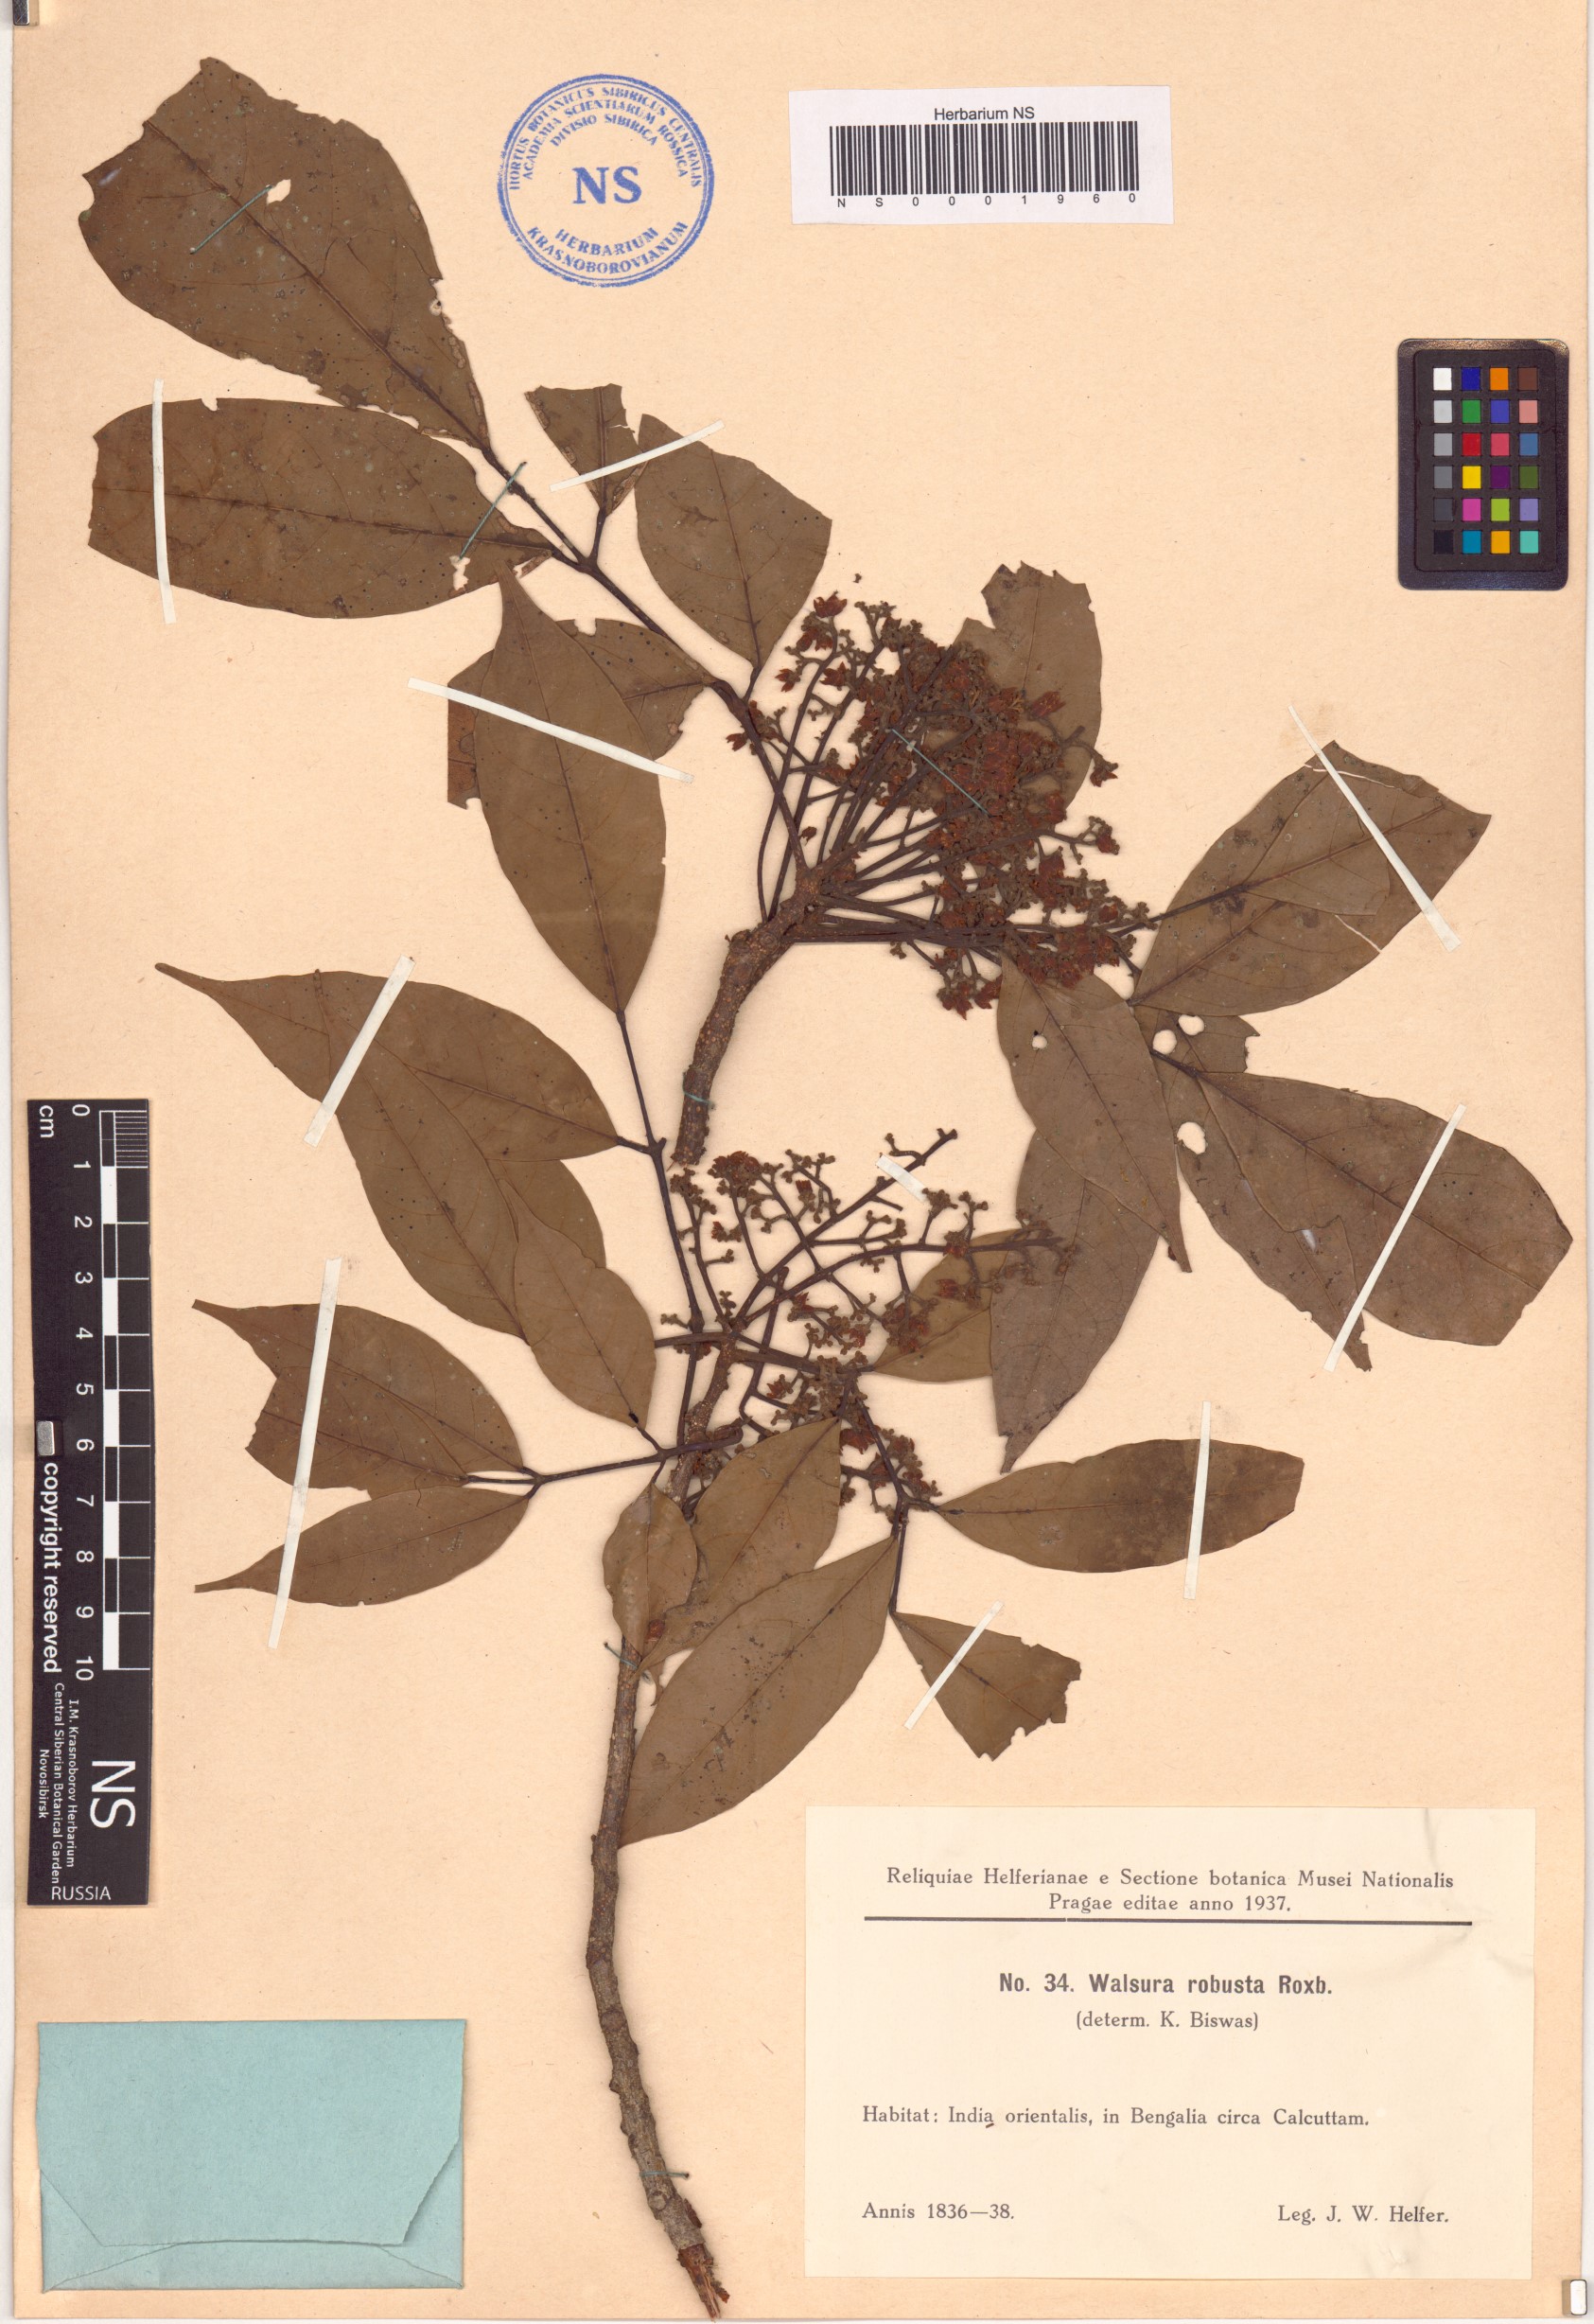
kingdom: Plantae
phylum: Tracheophyta
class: Magnoliopsida
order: Sapindales
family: Meliaceae
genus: Walsura
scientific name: Walsura robusta
